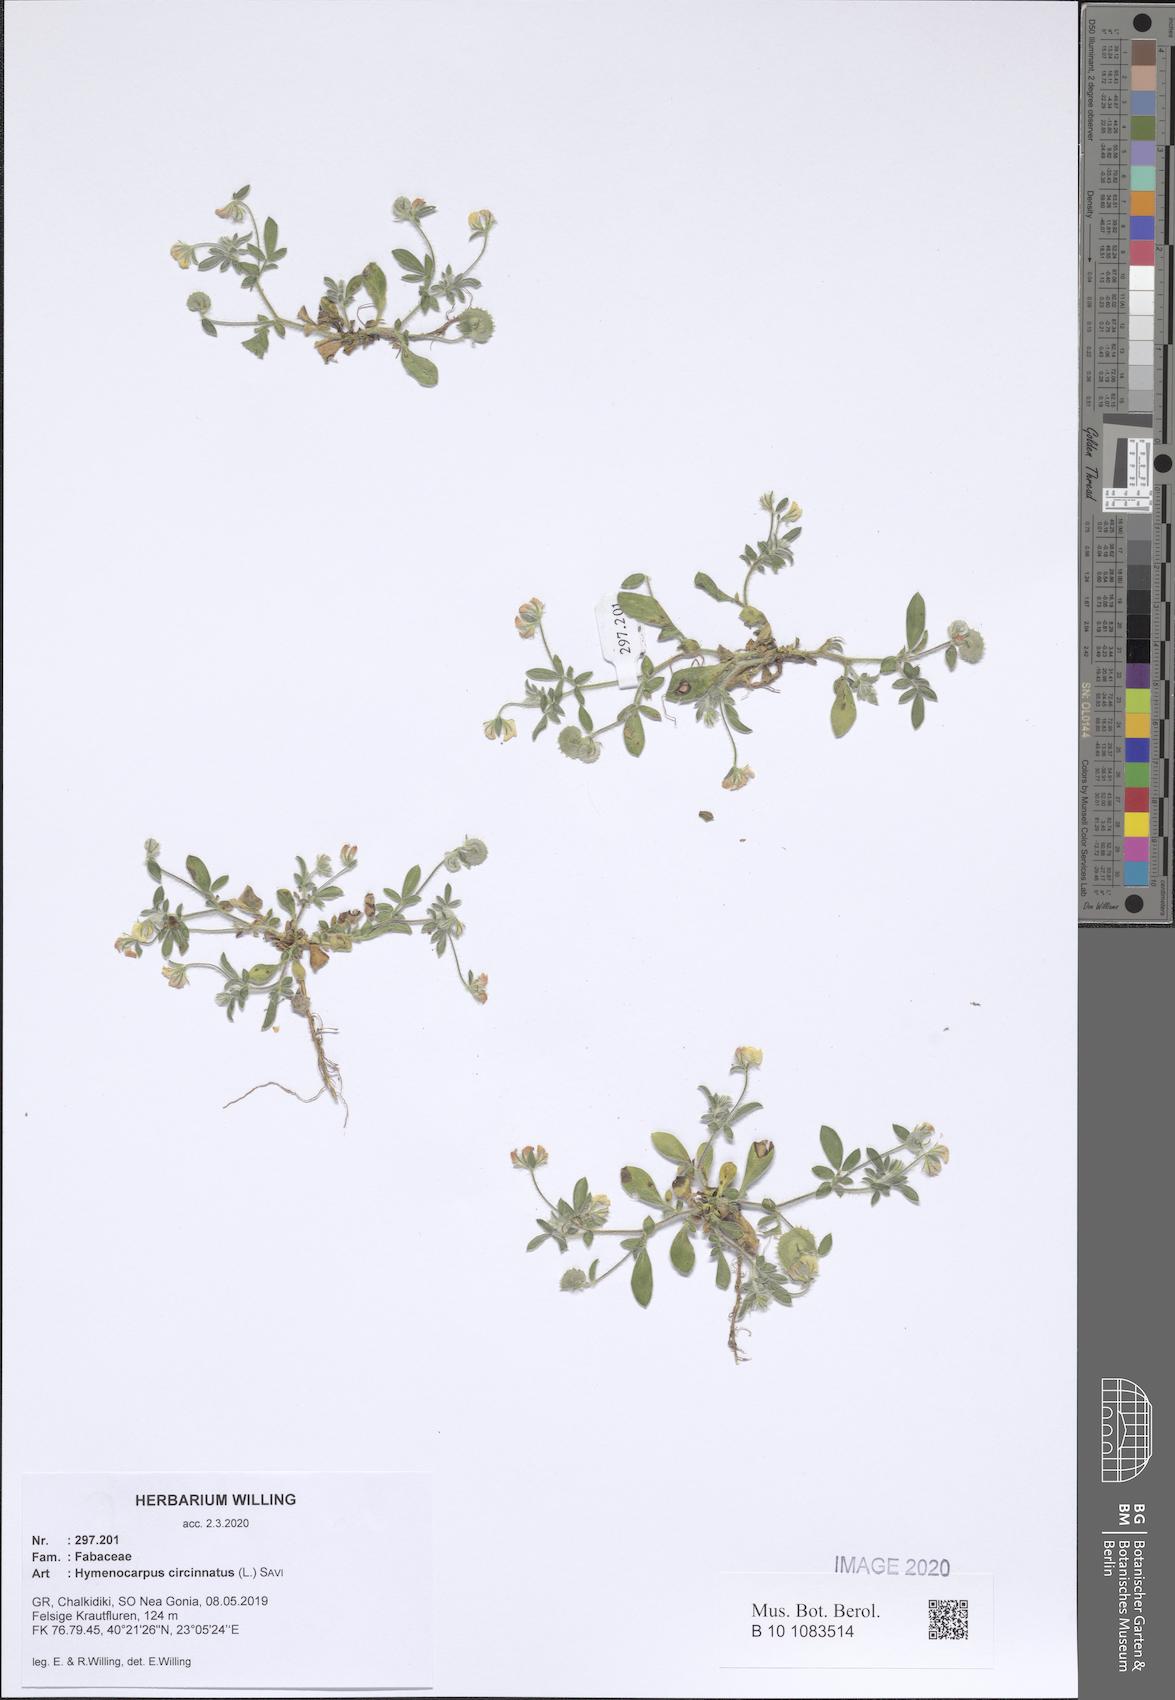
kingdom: Plantae
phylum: Tracheophyta
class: Magnoliopsida
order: Fabales
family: Fabaceae
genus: Anthyllis
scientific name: Anthyllis circinnata
